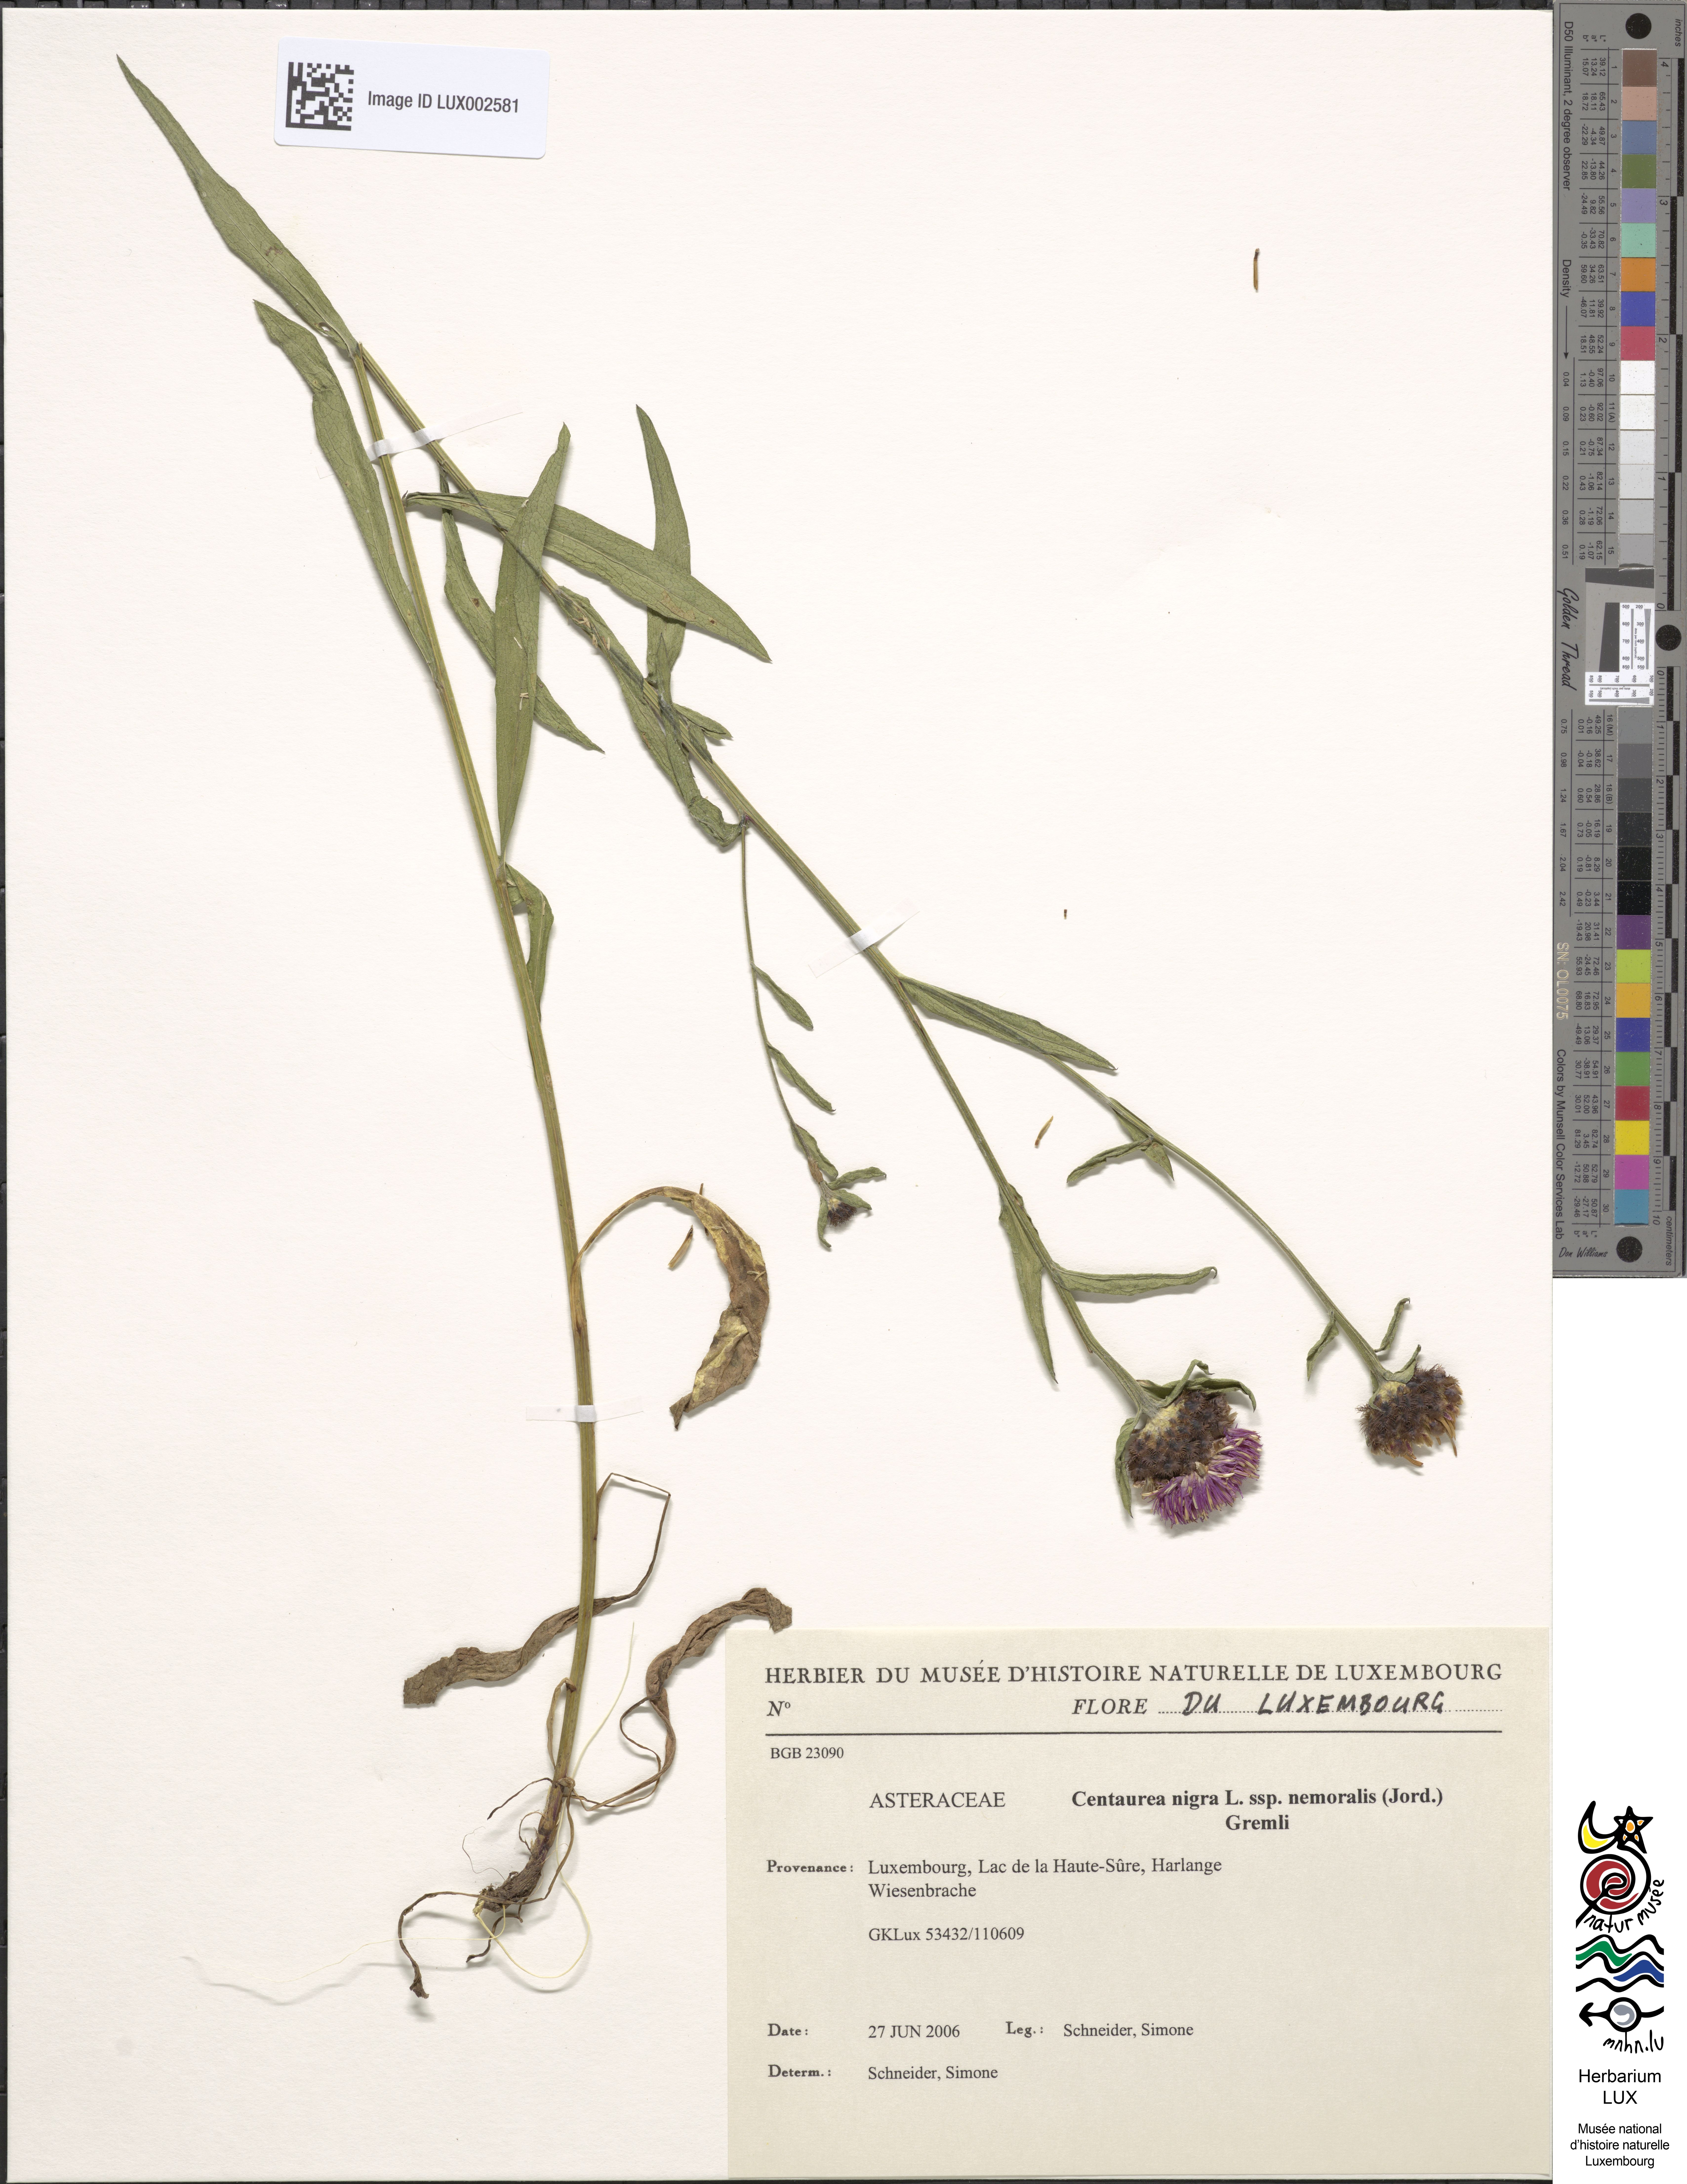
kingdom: Plantae
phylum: Tracheophyta
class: Magnoliopsida
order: Asterales
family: Asteraceae
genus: Centaurea
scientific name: Centaurea nigra
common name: Lesser knapweed
